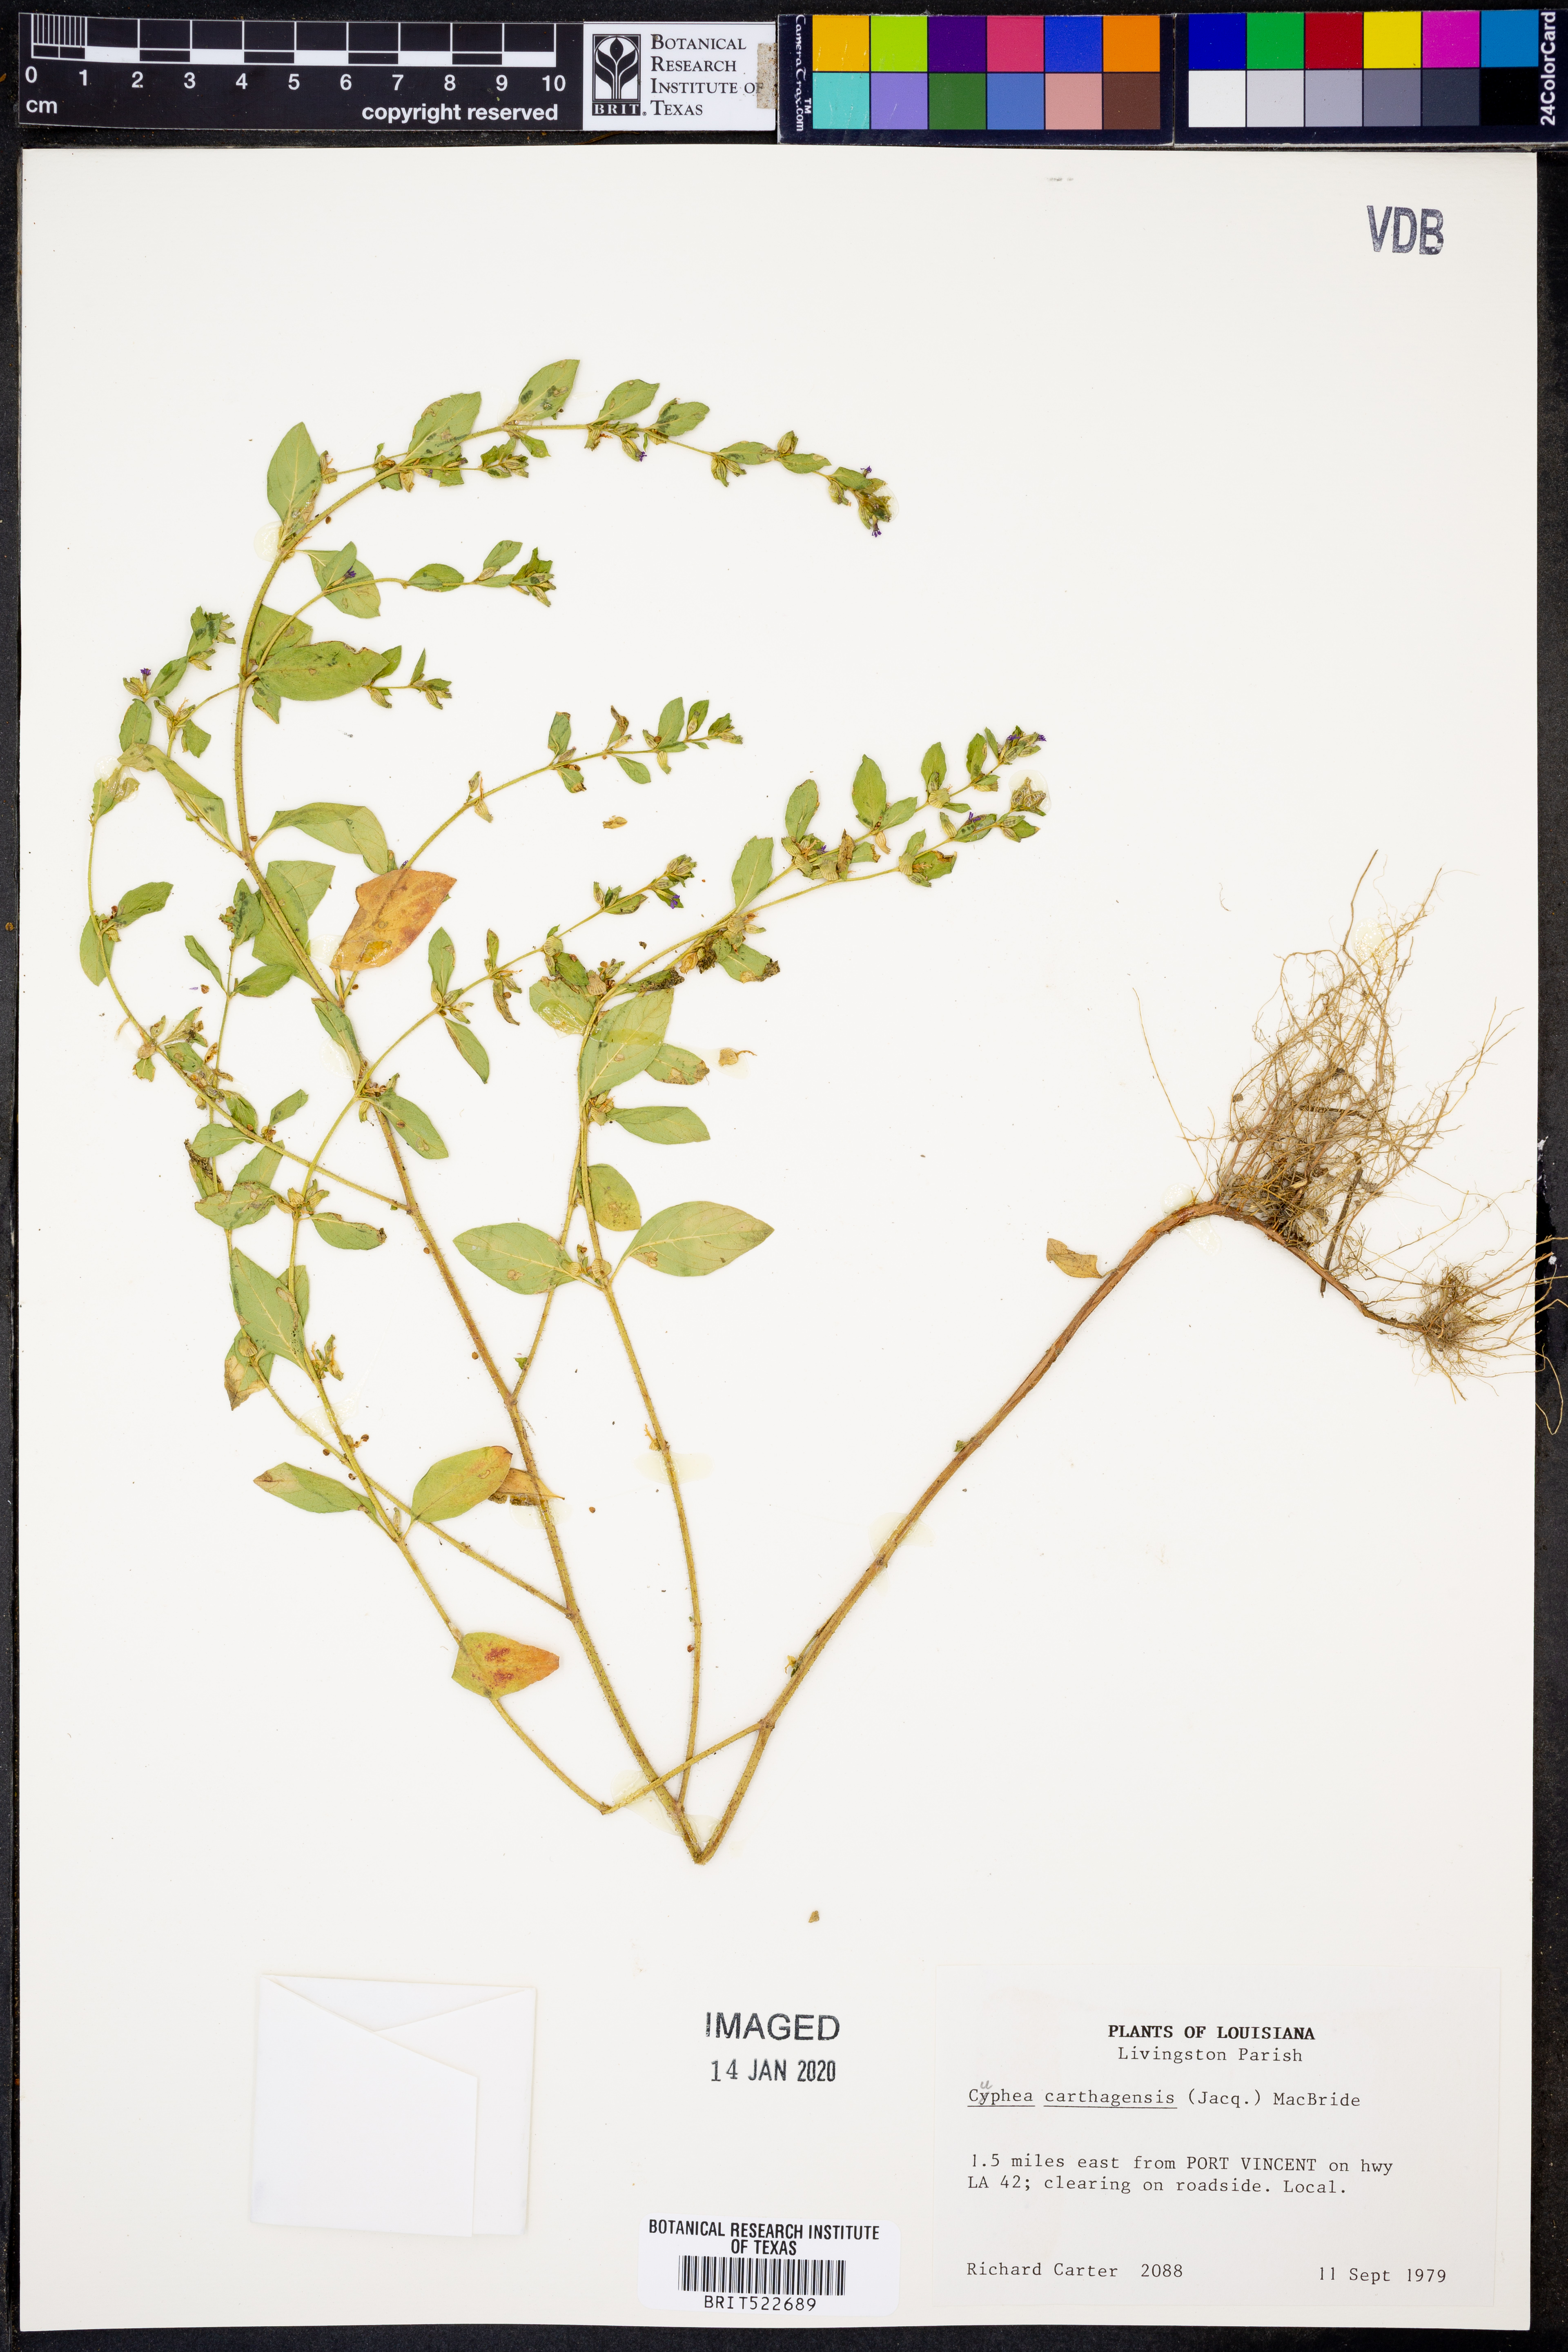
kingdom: Plantae
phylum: Tracheophyta
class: Magnoliopsida
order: Myrtales
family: Lythraceae
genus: Cuphea
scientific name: Cuphea carthagenensis
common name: Colombian waxweed
